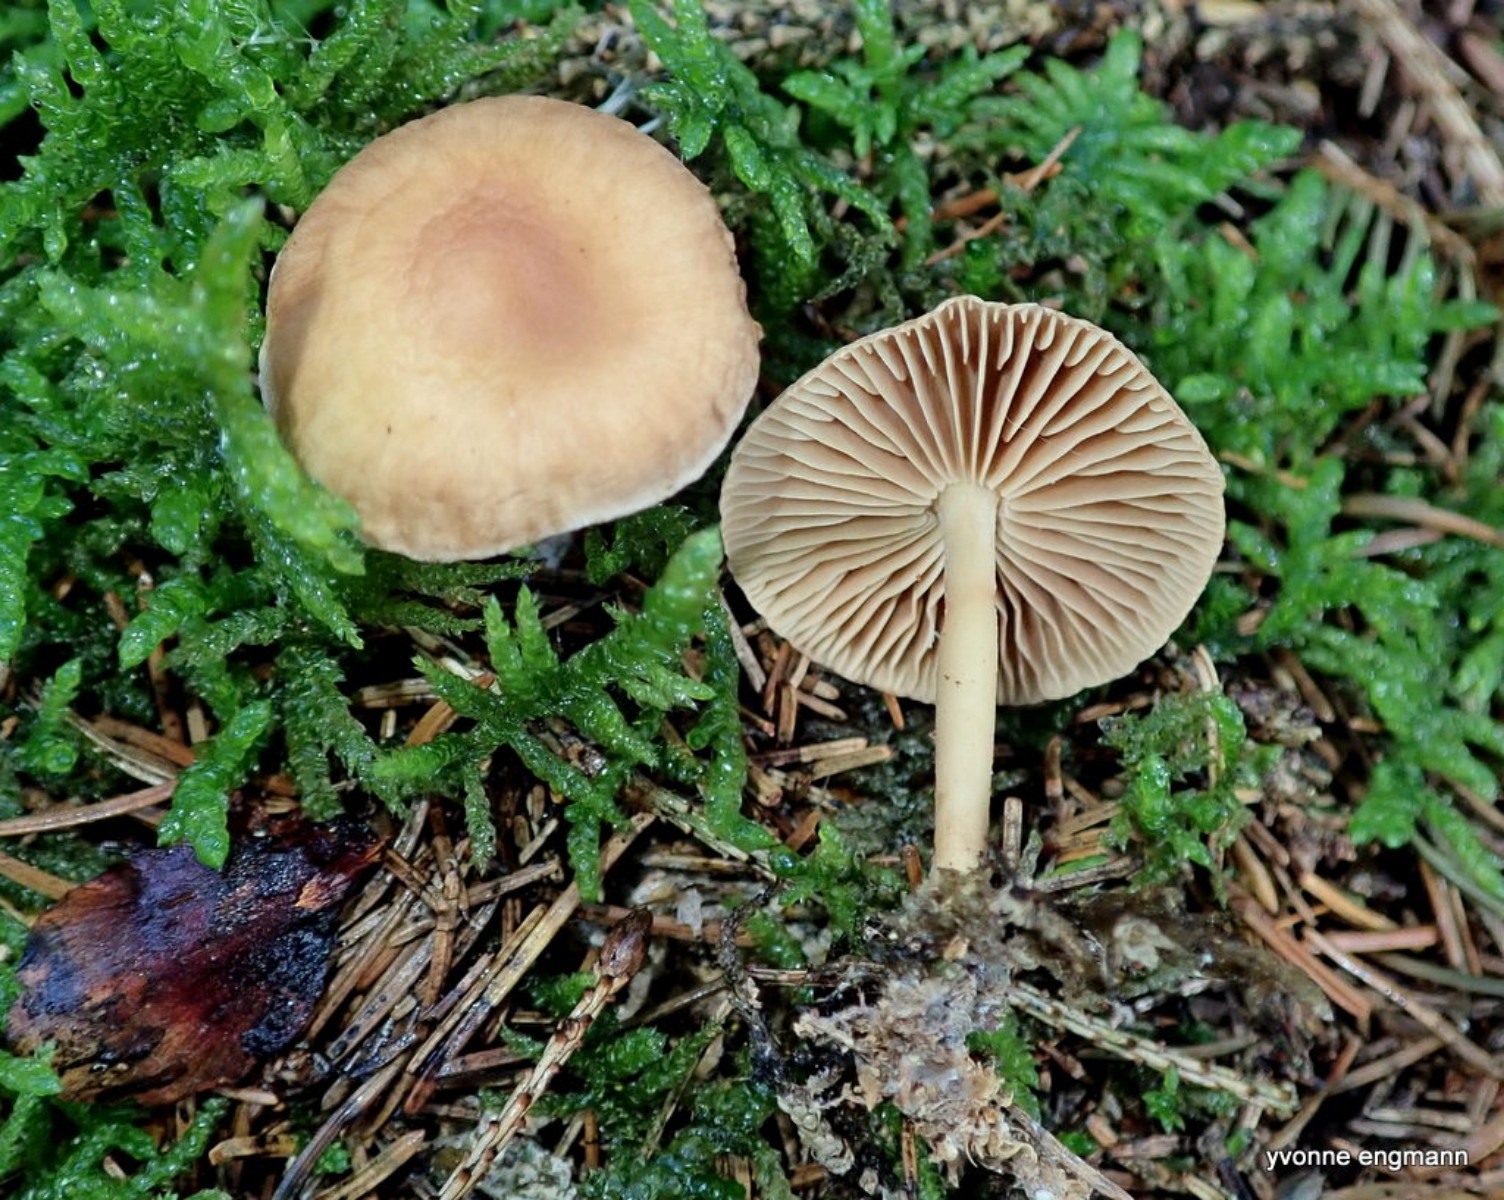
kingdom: Fungi
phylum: Basidiomycota
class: Agaricomycetes
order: Agaricales
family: Omphalotaceae
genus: Collybiopsis
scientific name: Collybiopsis peronata
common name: bestøvlet fladhat
